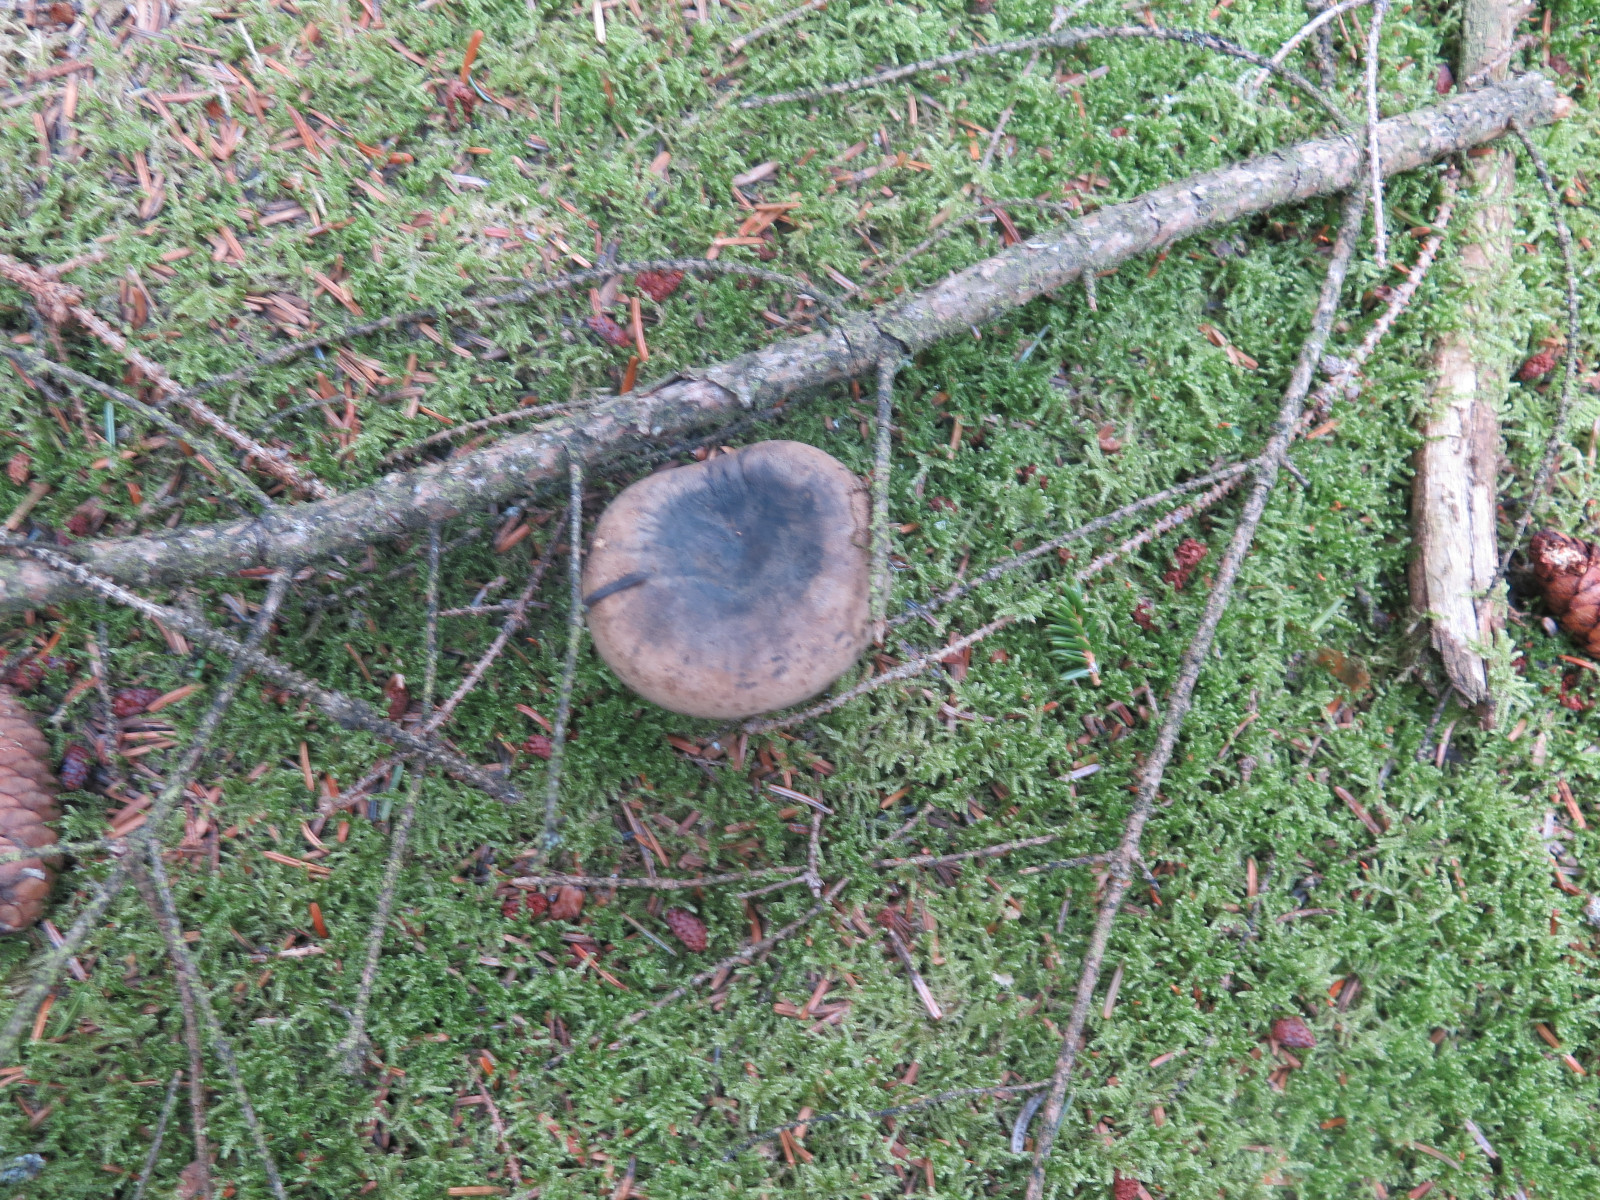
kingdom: Fungi
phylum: Basidiomycota
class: Agaricomycetes
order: Russulales
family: Russulaceae
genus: Lactarius
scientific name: Lactarius necator
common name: manddraber-mælkehat
